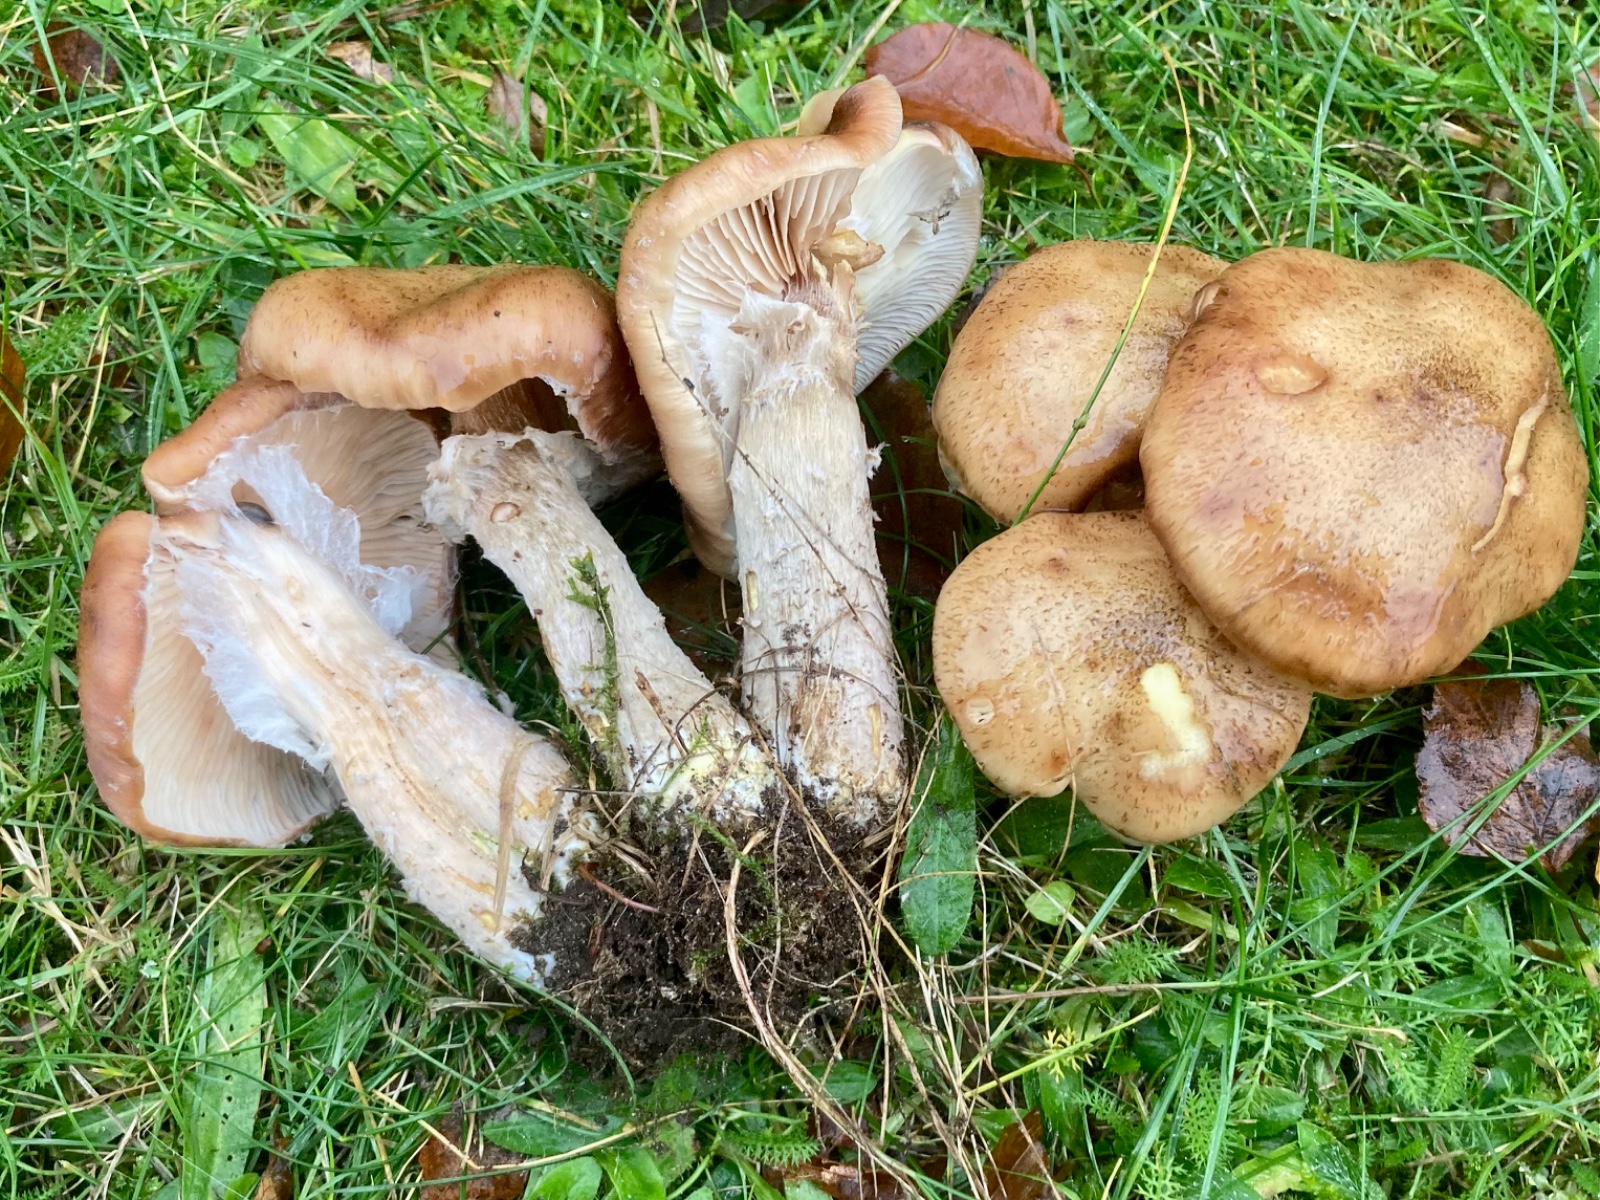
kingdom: Fungi
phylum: Basidiomycota
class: Agaricomycetes
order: Agaricales
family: Physalacriaceae
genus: Armillaria
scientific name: Armillaria lutea
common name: køllestokket honningsvamp
